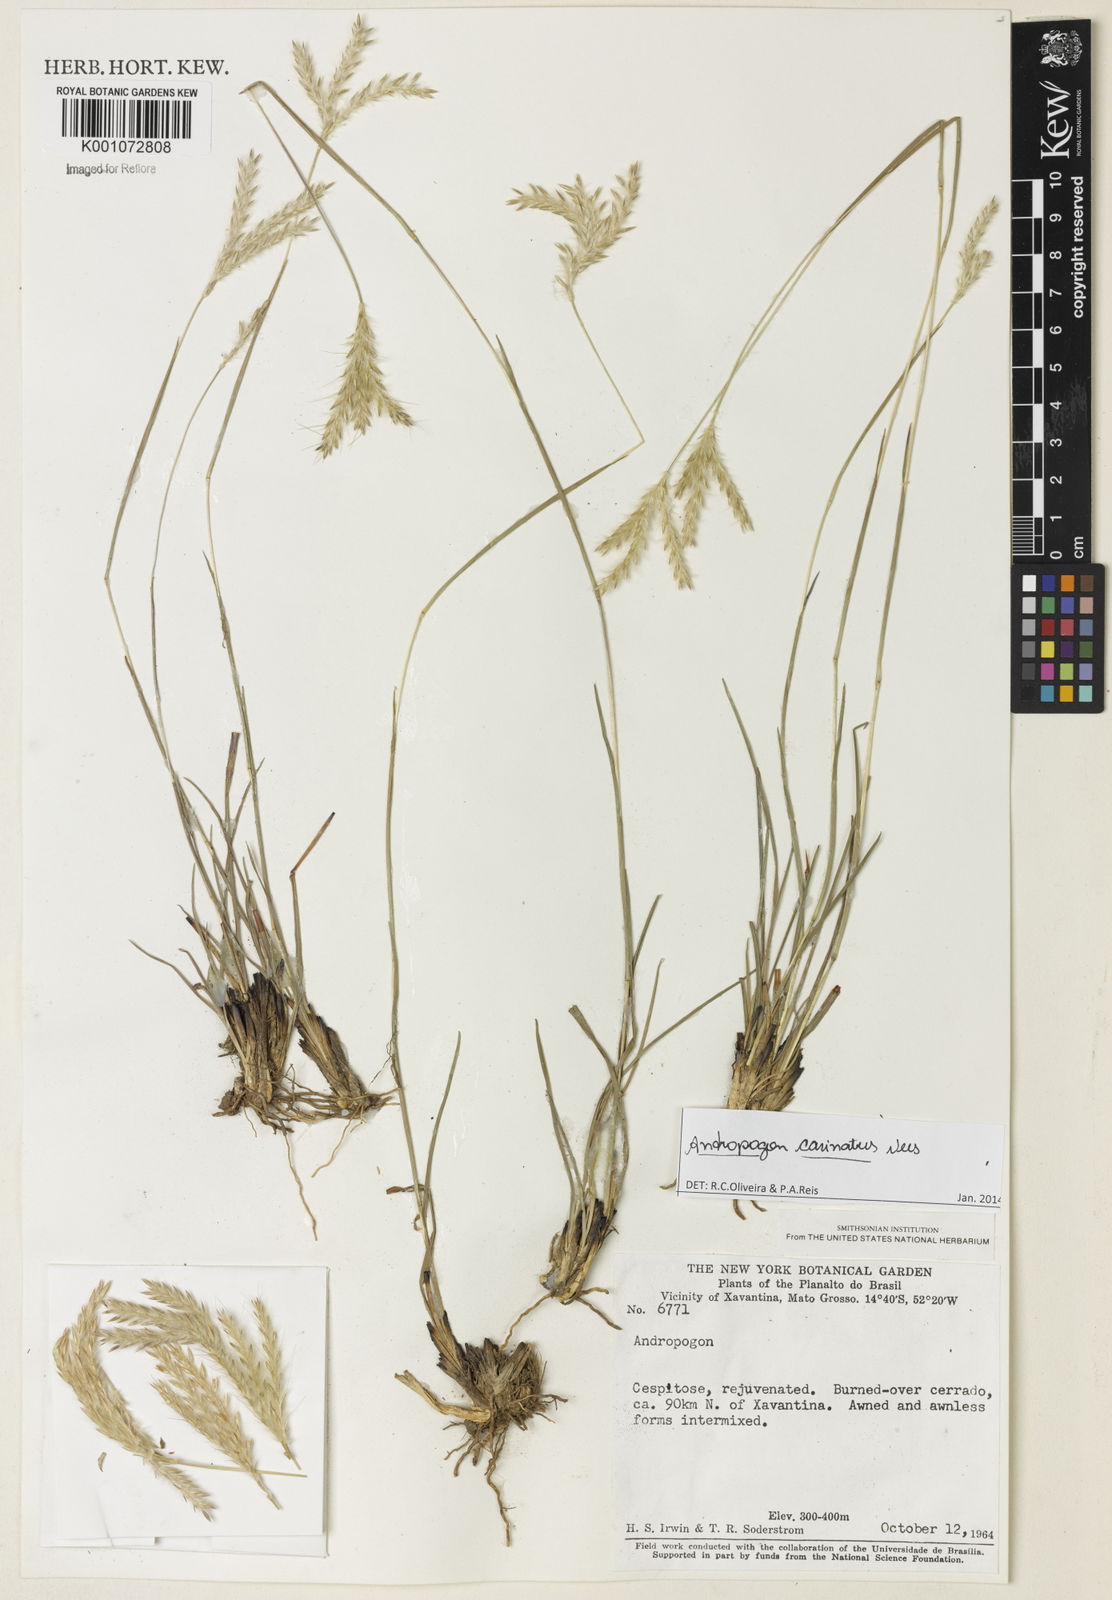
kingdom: Plantae
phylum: Tracheophyta
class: Liliopsida
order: Poales
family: Poaceae
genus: Andropogon
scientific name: Andropogon carinatus
